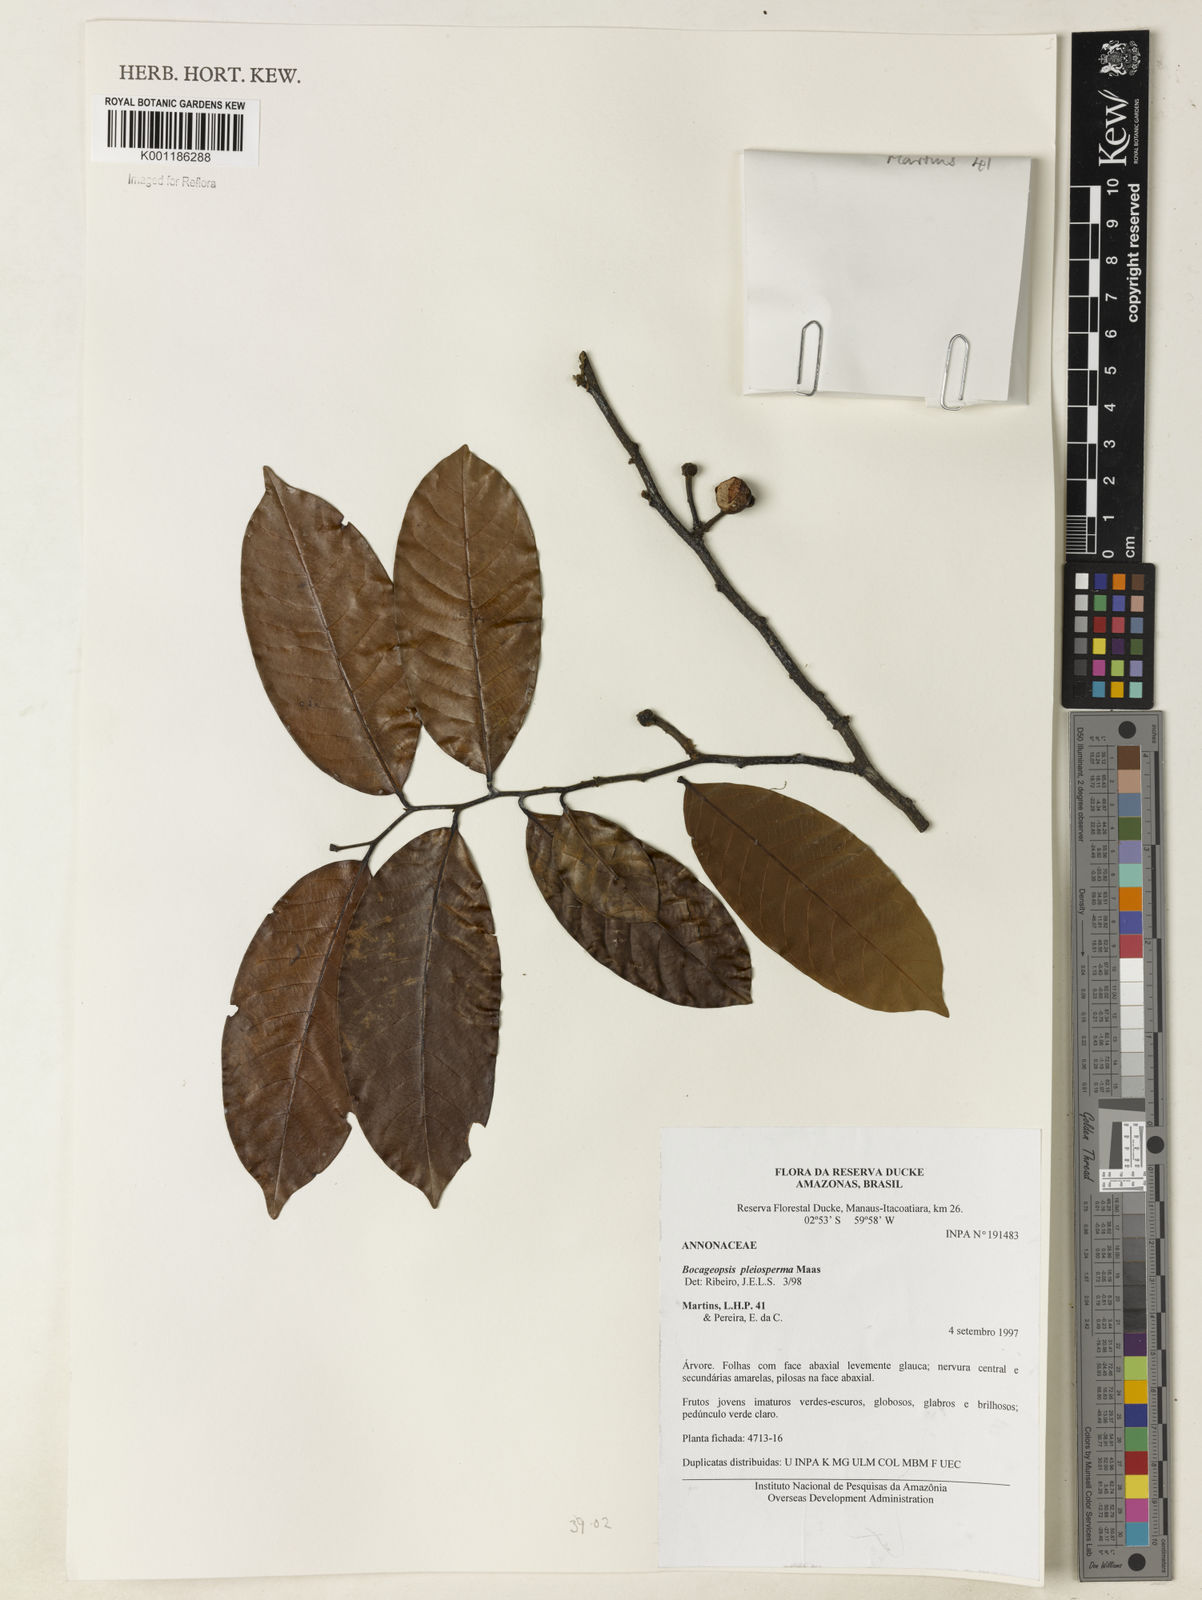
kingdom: Plantae
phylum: Tracheophyta
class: Magnoliopsida
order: Magnoliales
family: Annonaceae
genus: Bocageopsis
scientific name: Bocageopsis pleiosperma
